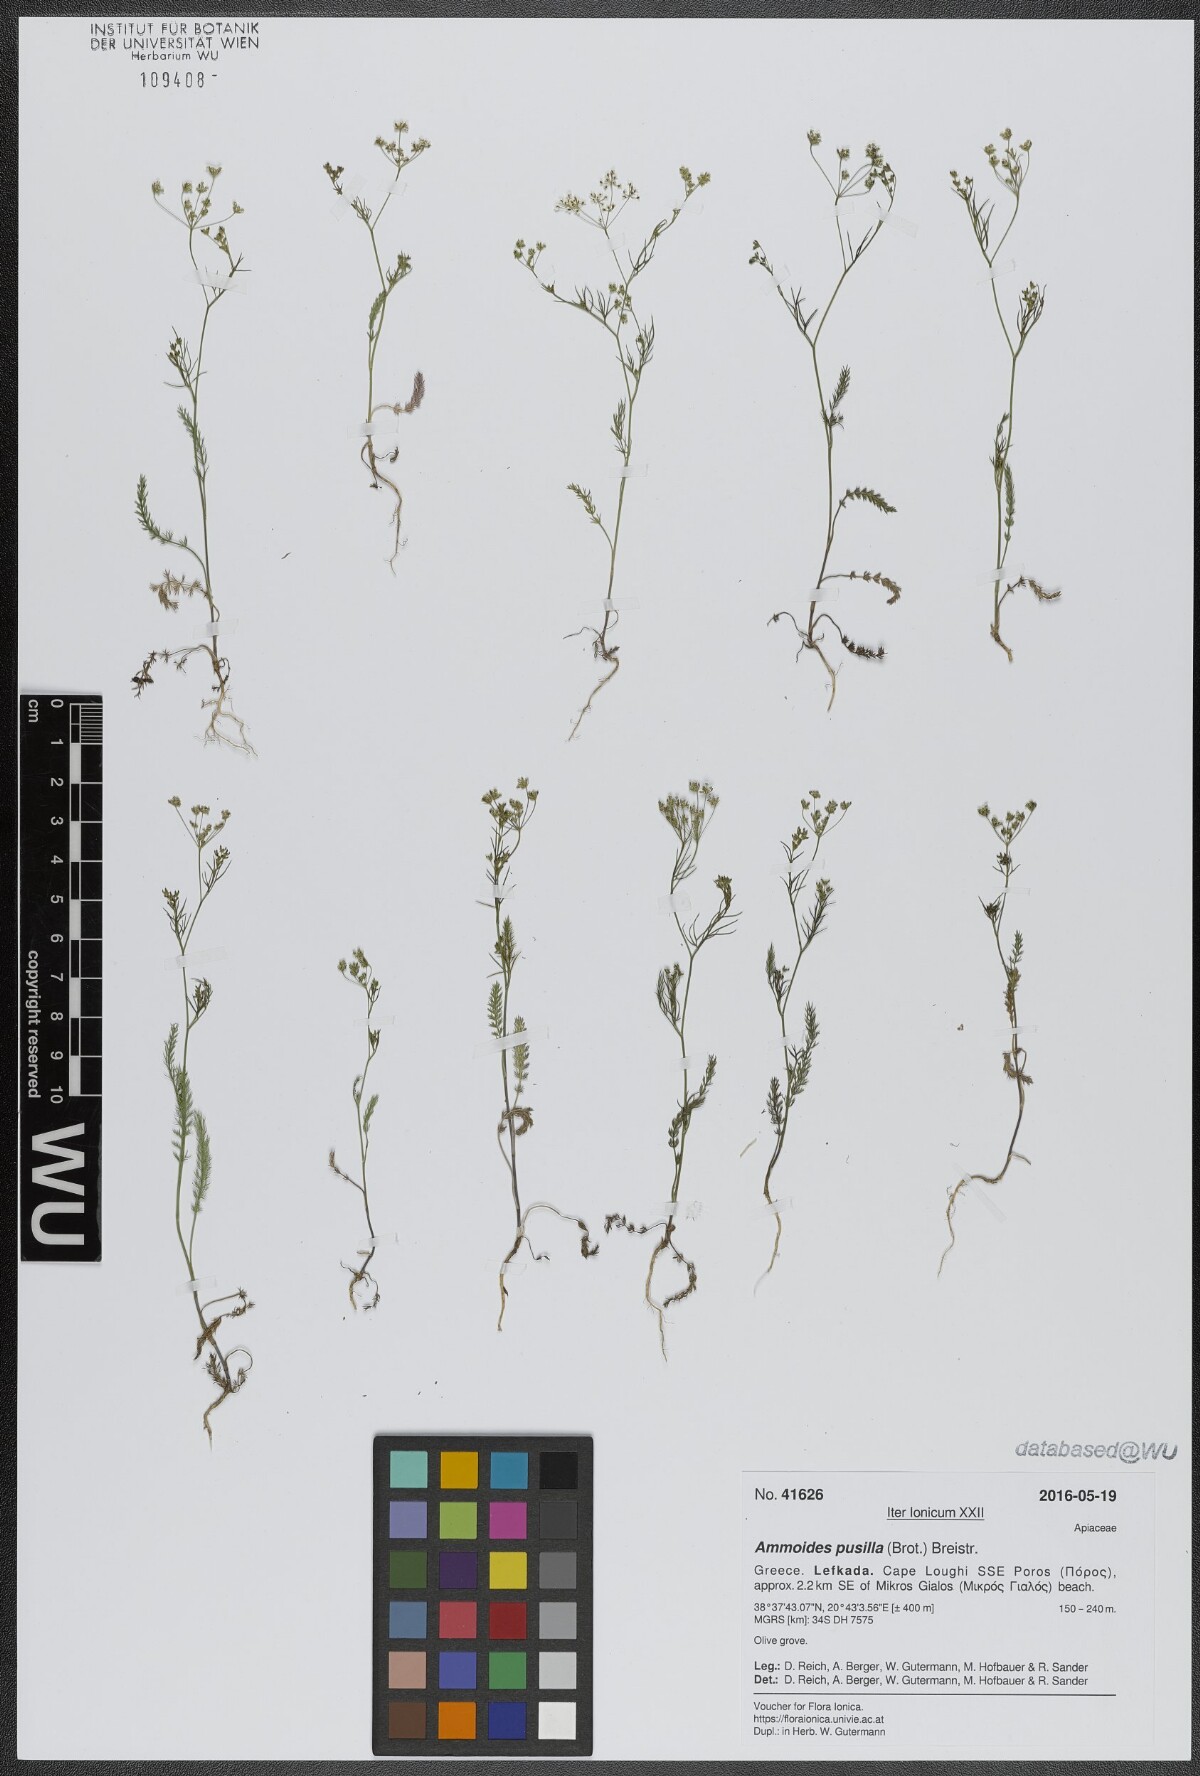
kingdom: Plantae
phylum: Tracheophyta
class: Magnoliopsida
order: Apiales
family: Apiaceae
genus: Ammoides
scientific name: Ammoides pusilla
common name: Cerfolium
